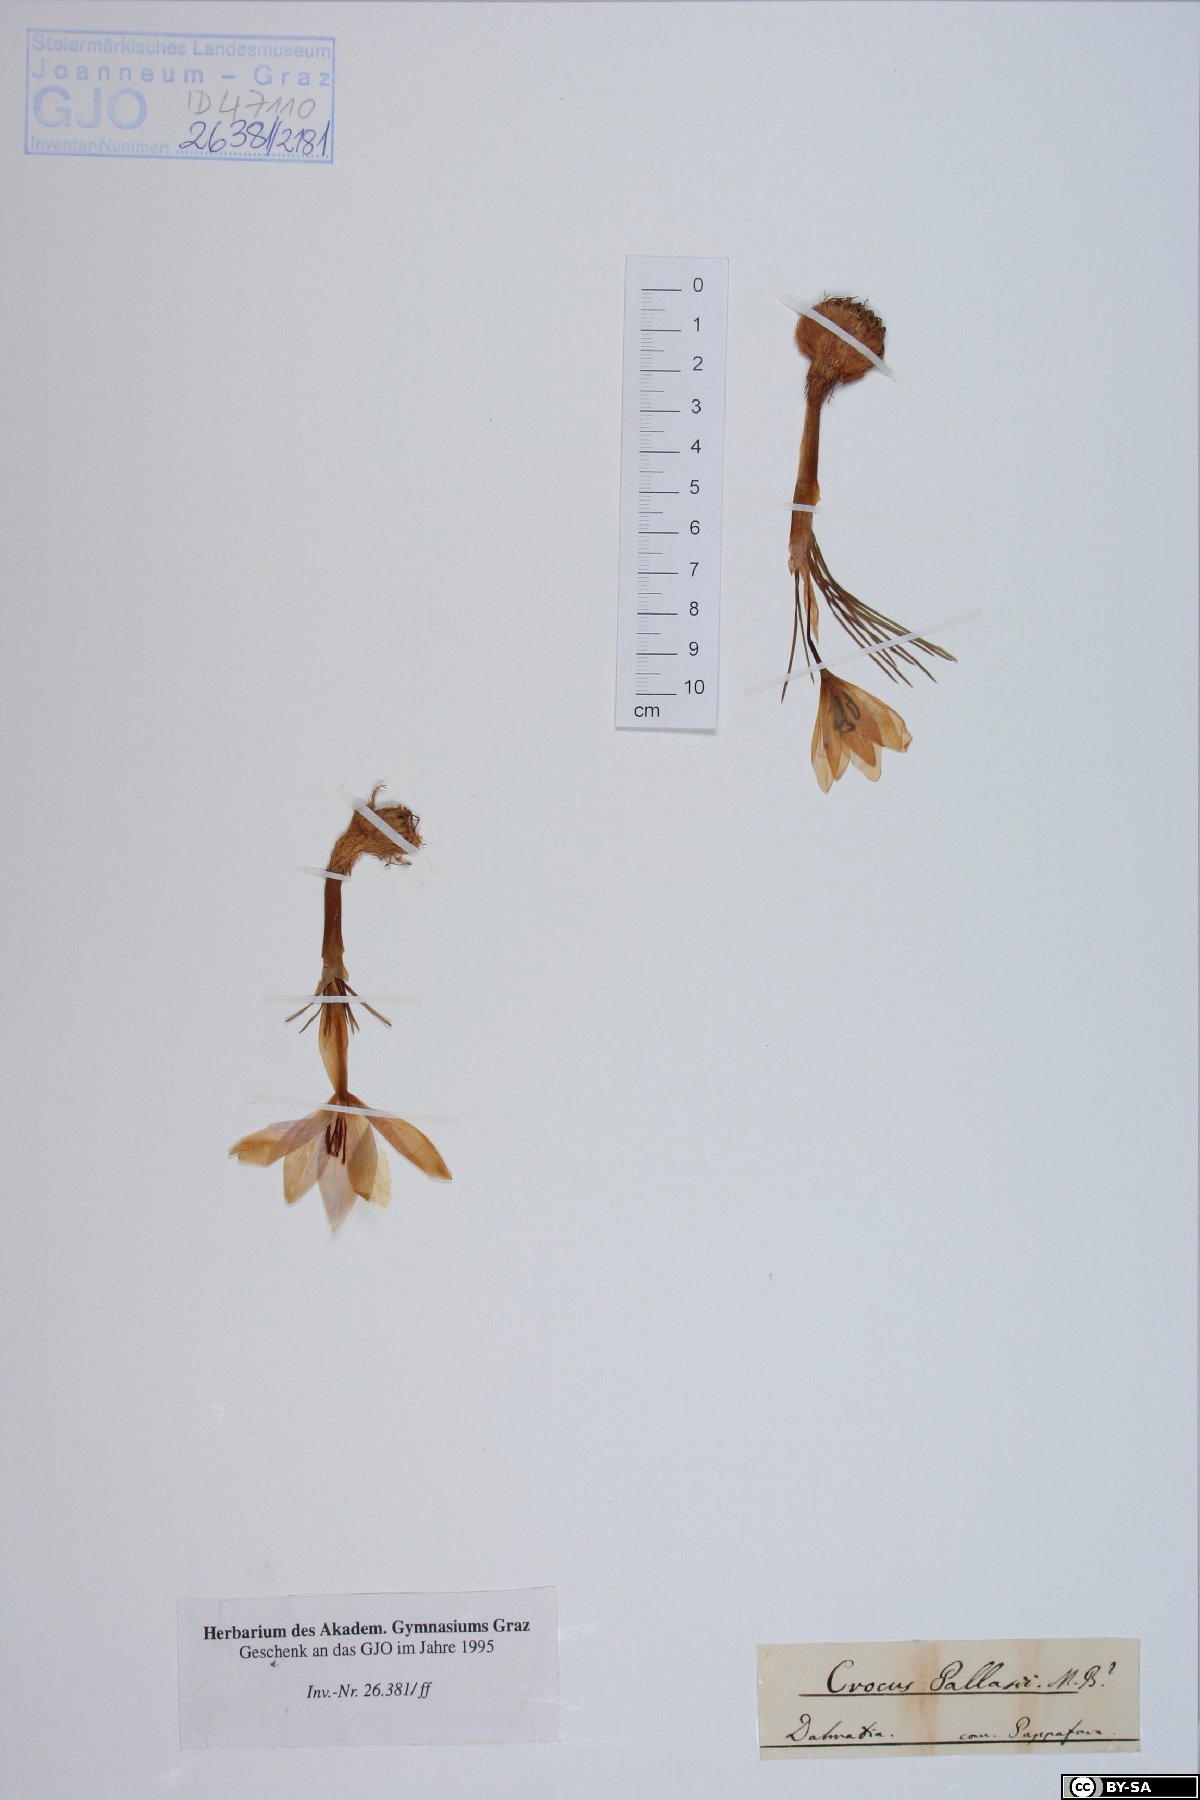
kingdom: Plantae
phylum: Tracheophyta
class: Liliopsida
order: Asparagales
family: Iridaceae
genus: Crocus
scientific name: Crocus pallasii
